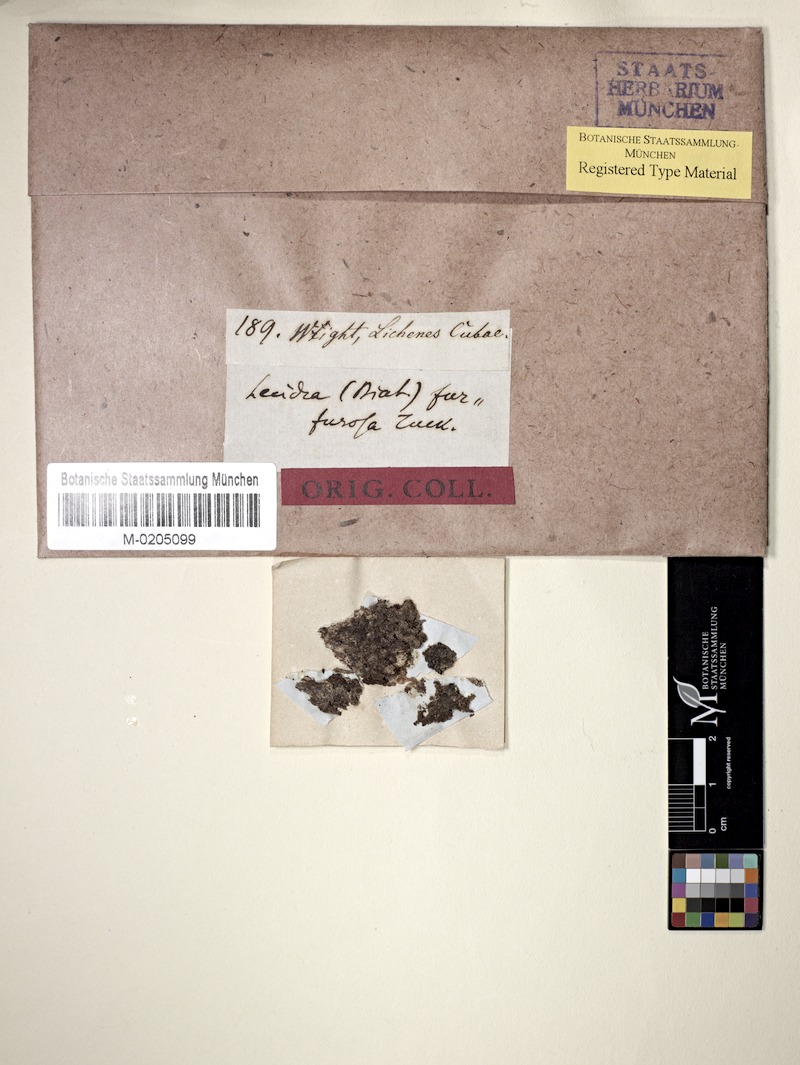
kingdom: Fungi
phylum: Ascomycota
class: Lecanoromycetes
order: Lecanorales
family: Malmideaceae
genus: Malmidea
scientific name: Malmidea furfurosa
